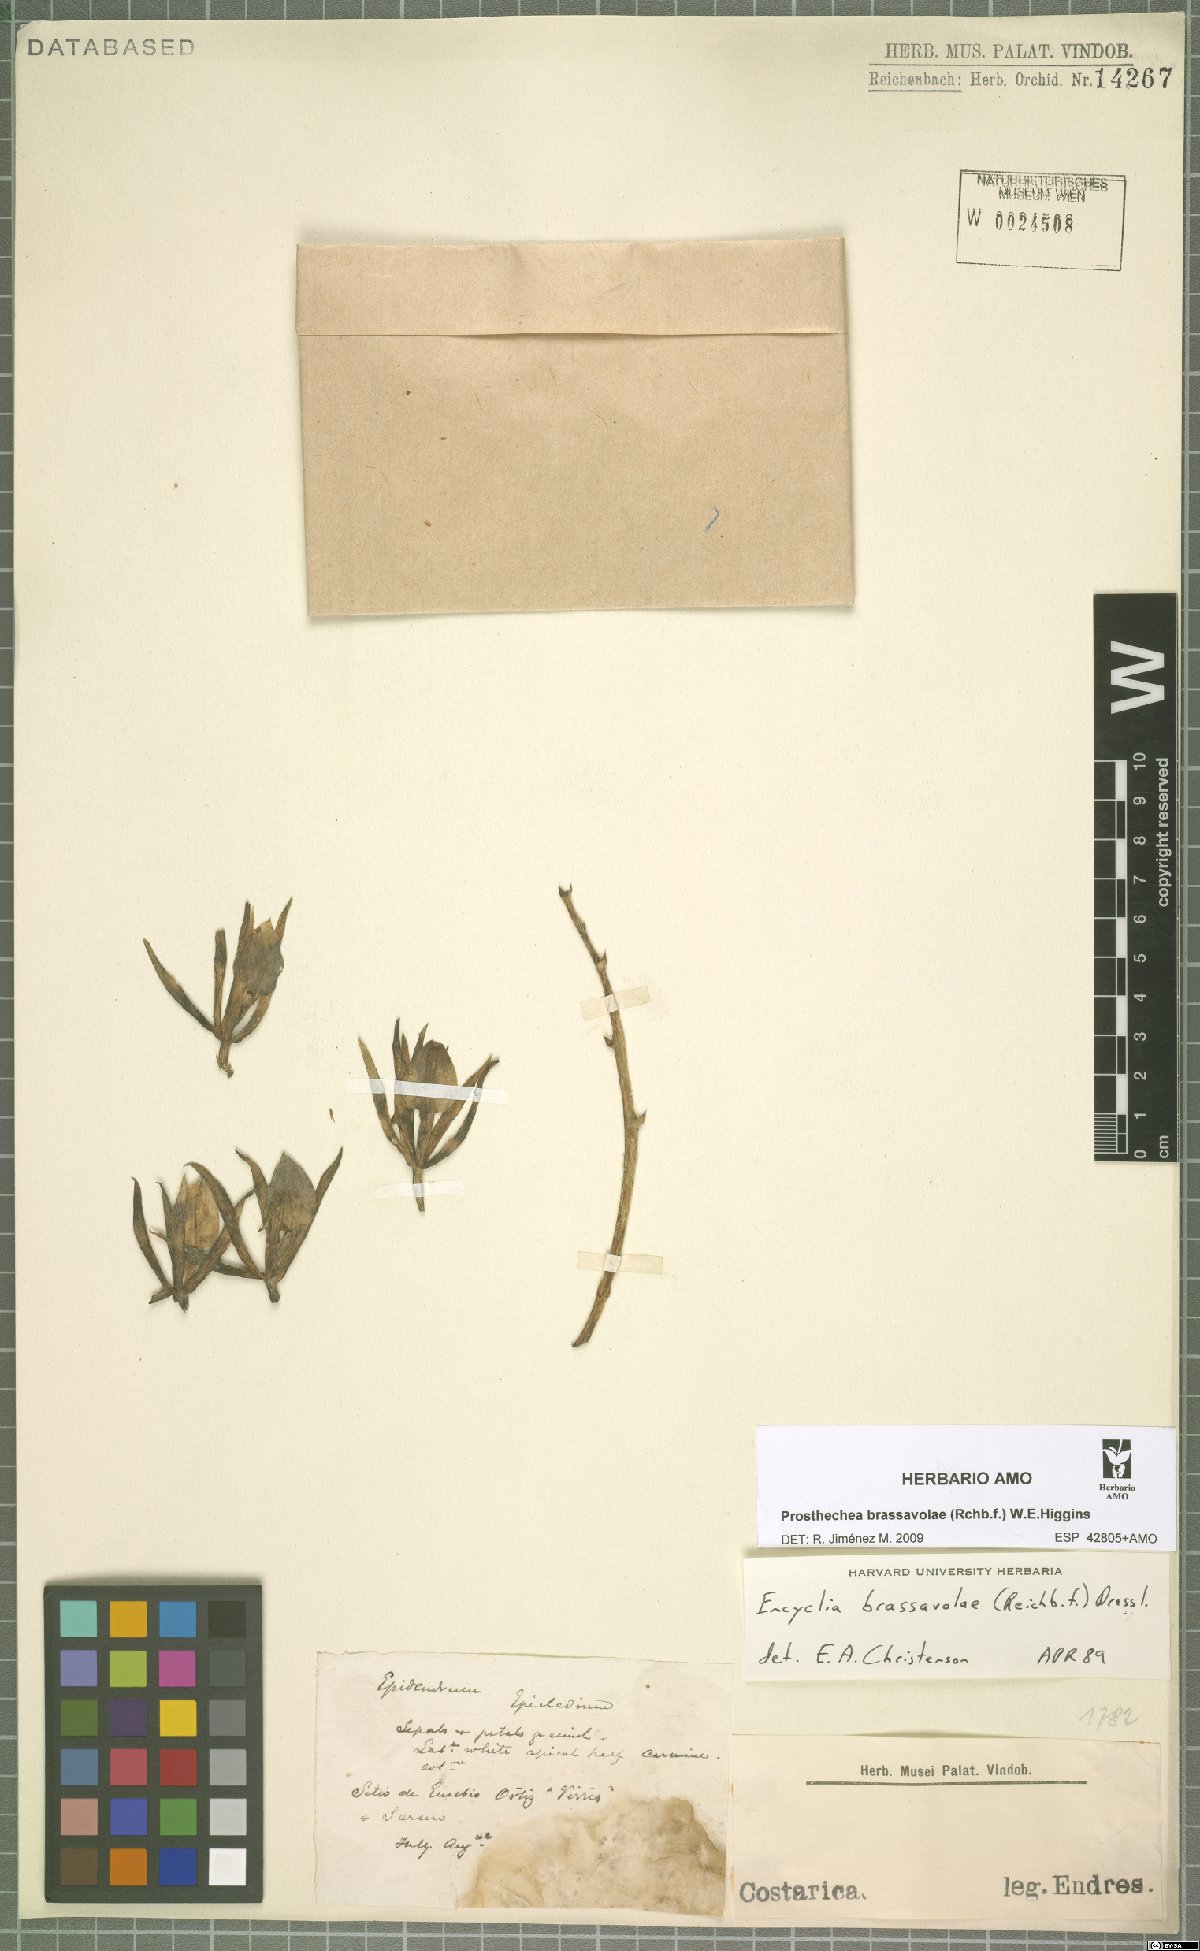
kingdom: Plantae
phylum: Tracheophyta
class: Liliopsida
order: Asparagales
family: Orchidaceae
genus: Prosthechea
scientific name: Prosthechea brassavolae
